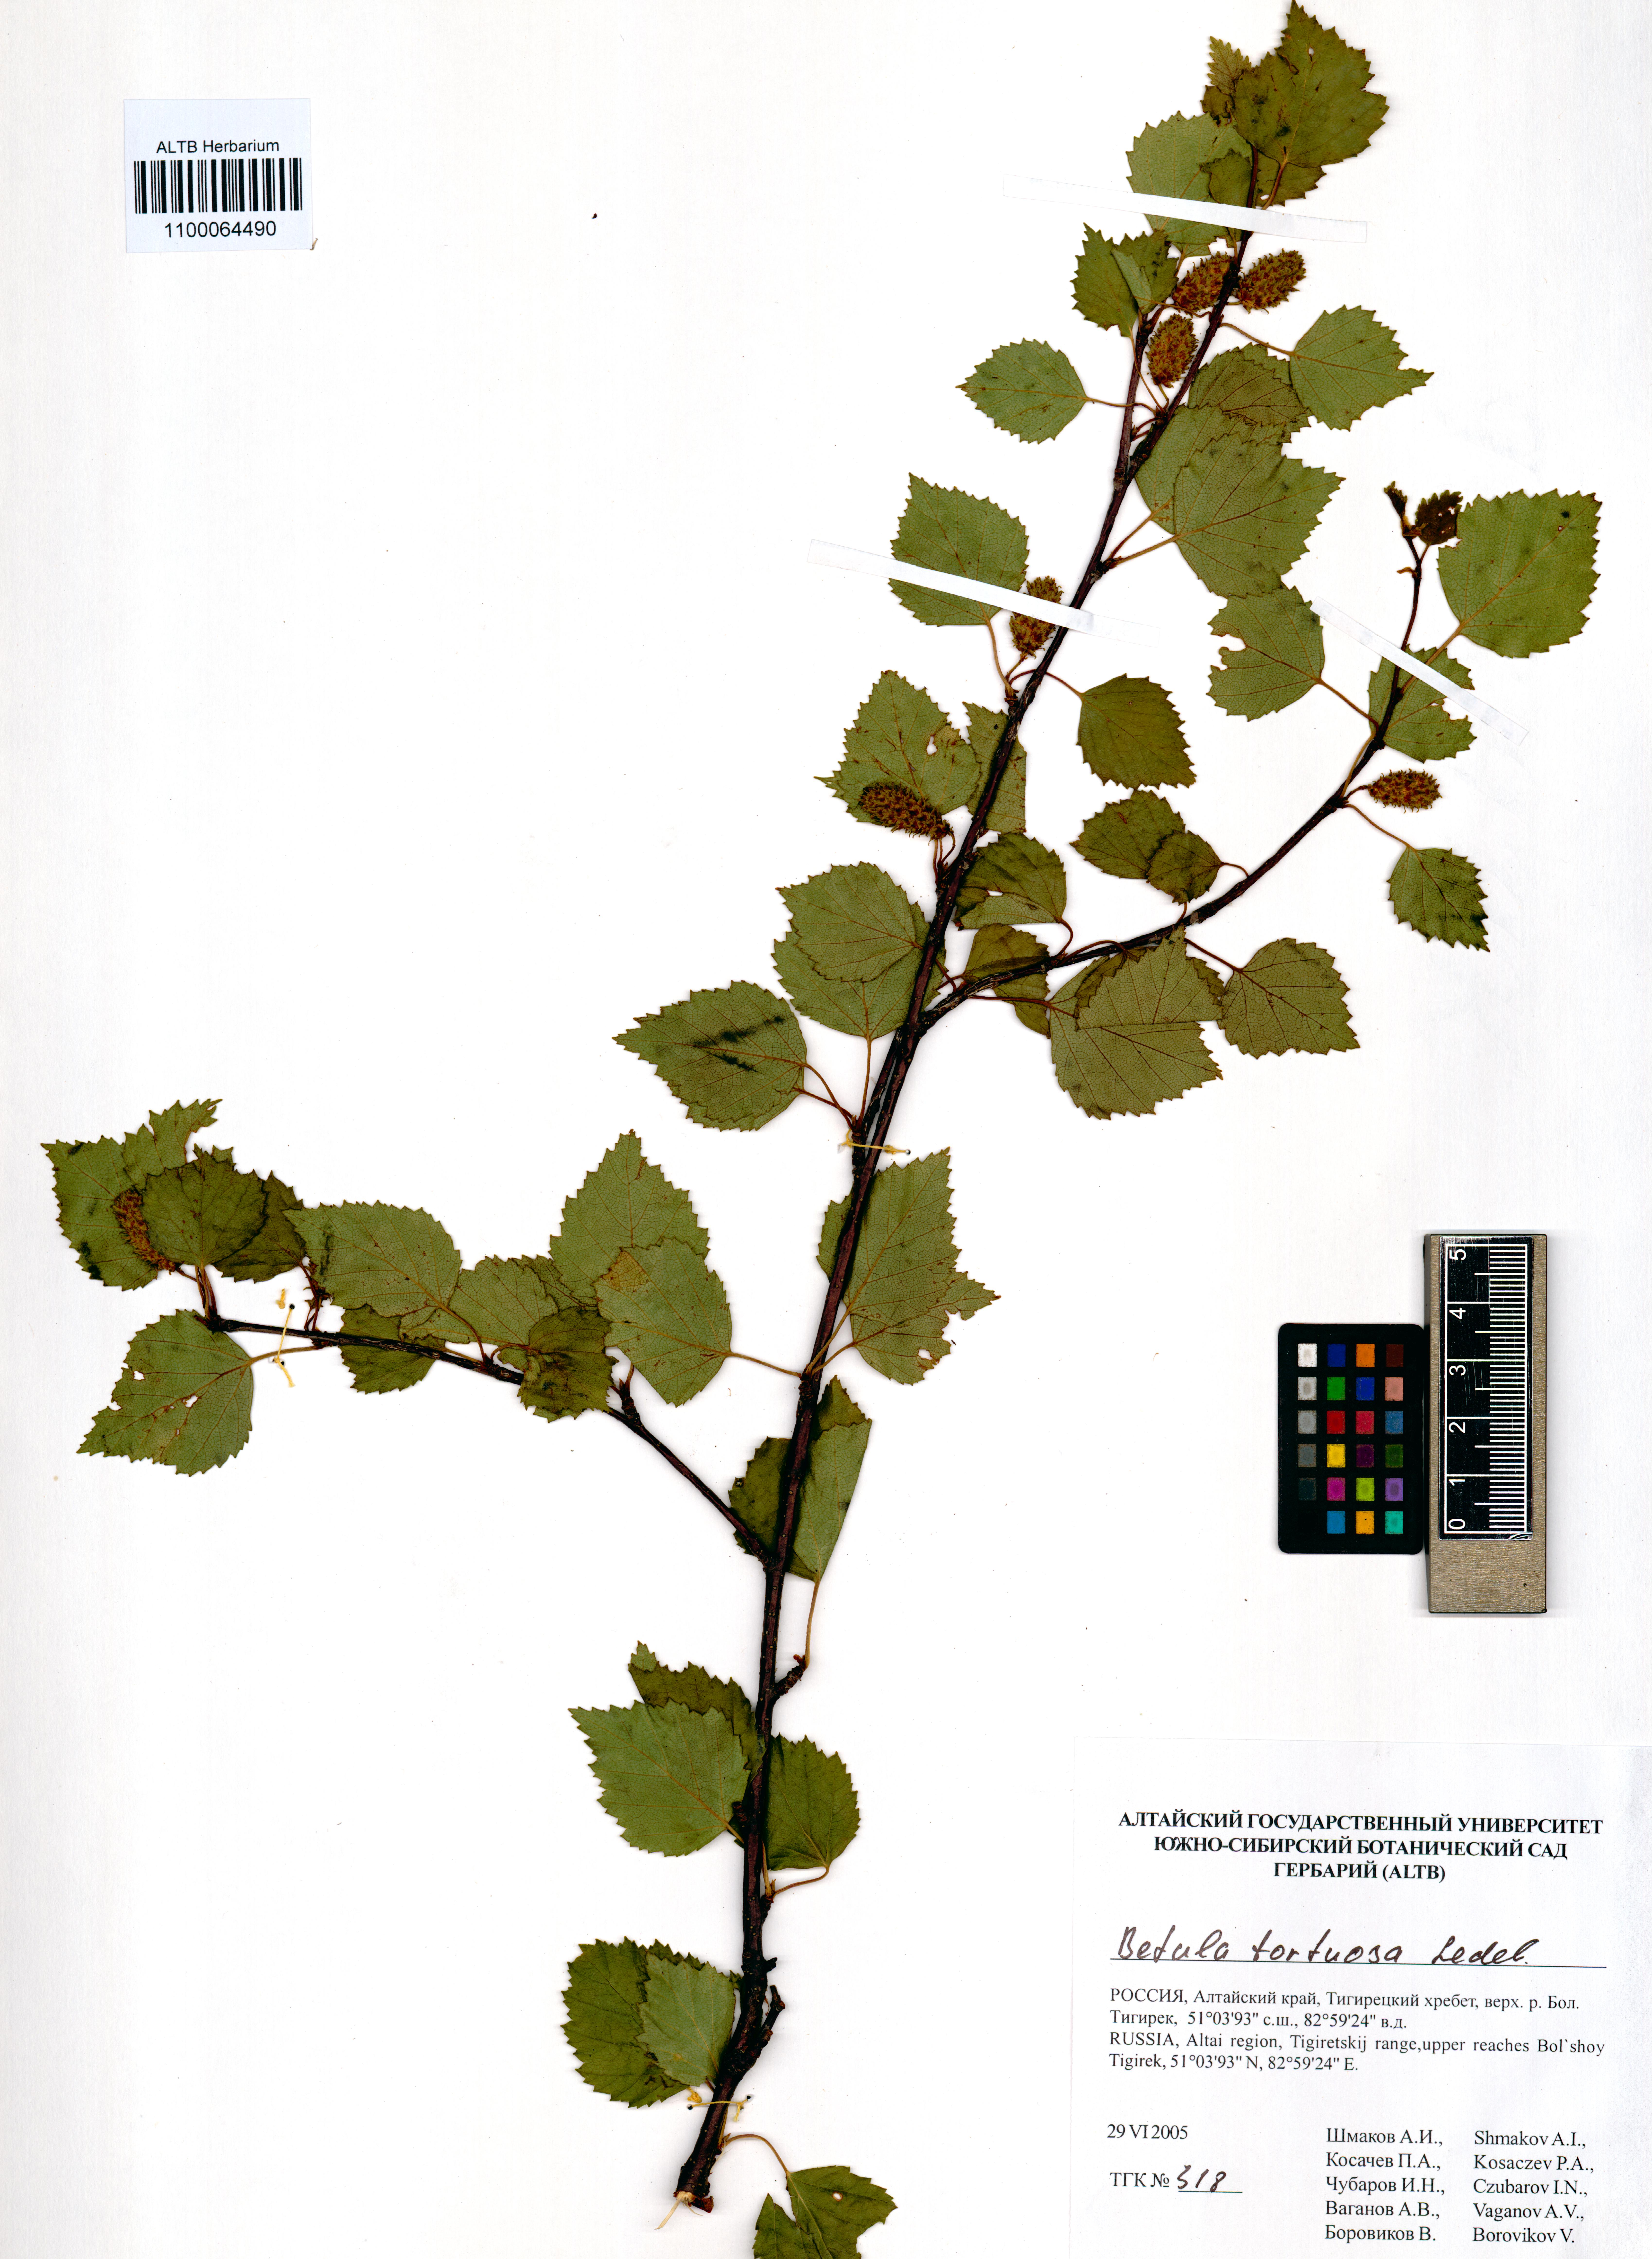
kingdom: Plantae
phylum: Tracheophyta
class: Magnoliopsida
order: Fagales
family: Betulaceae
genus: Betula
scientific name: Betula pubescens
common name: Downy birch
